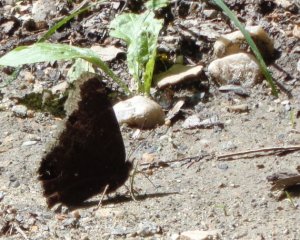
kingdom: Animalia
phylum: Arthropoda
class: Insecta
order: Lepidoptera
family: Nymphalidae
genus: Nymphalis
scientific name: Nymphalis antiopa
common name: Mourning Cloak
